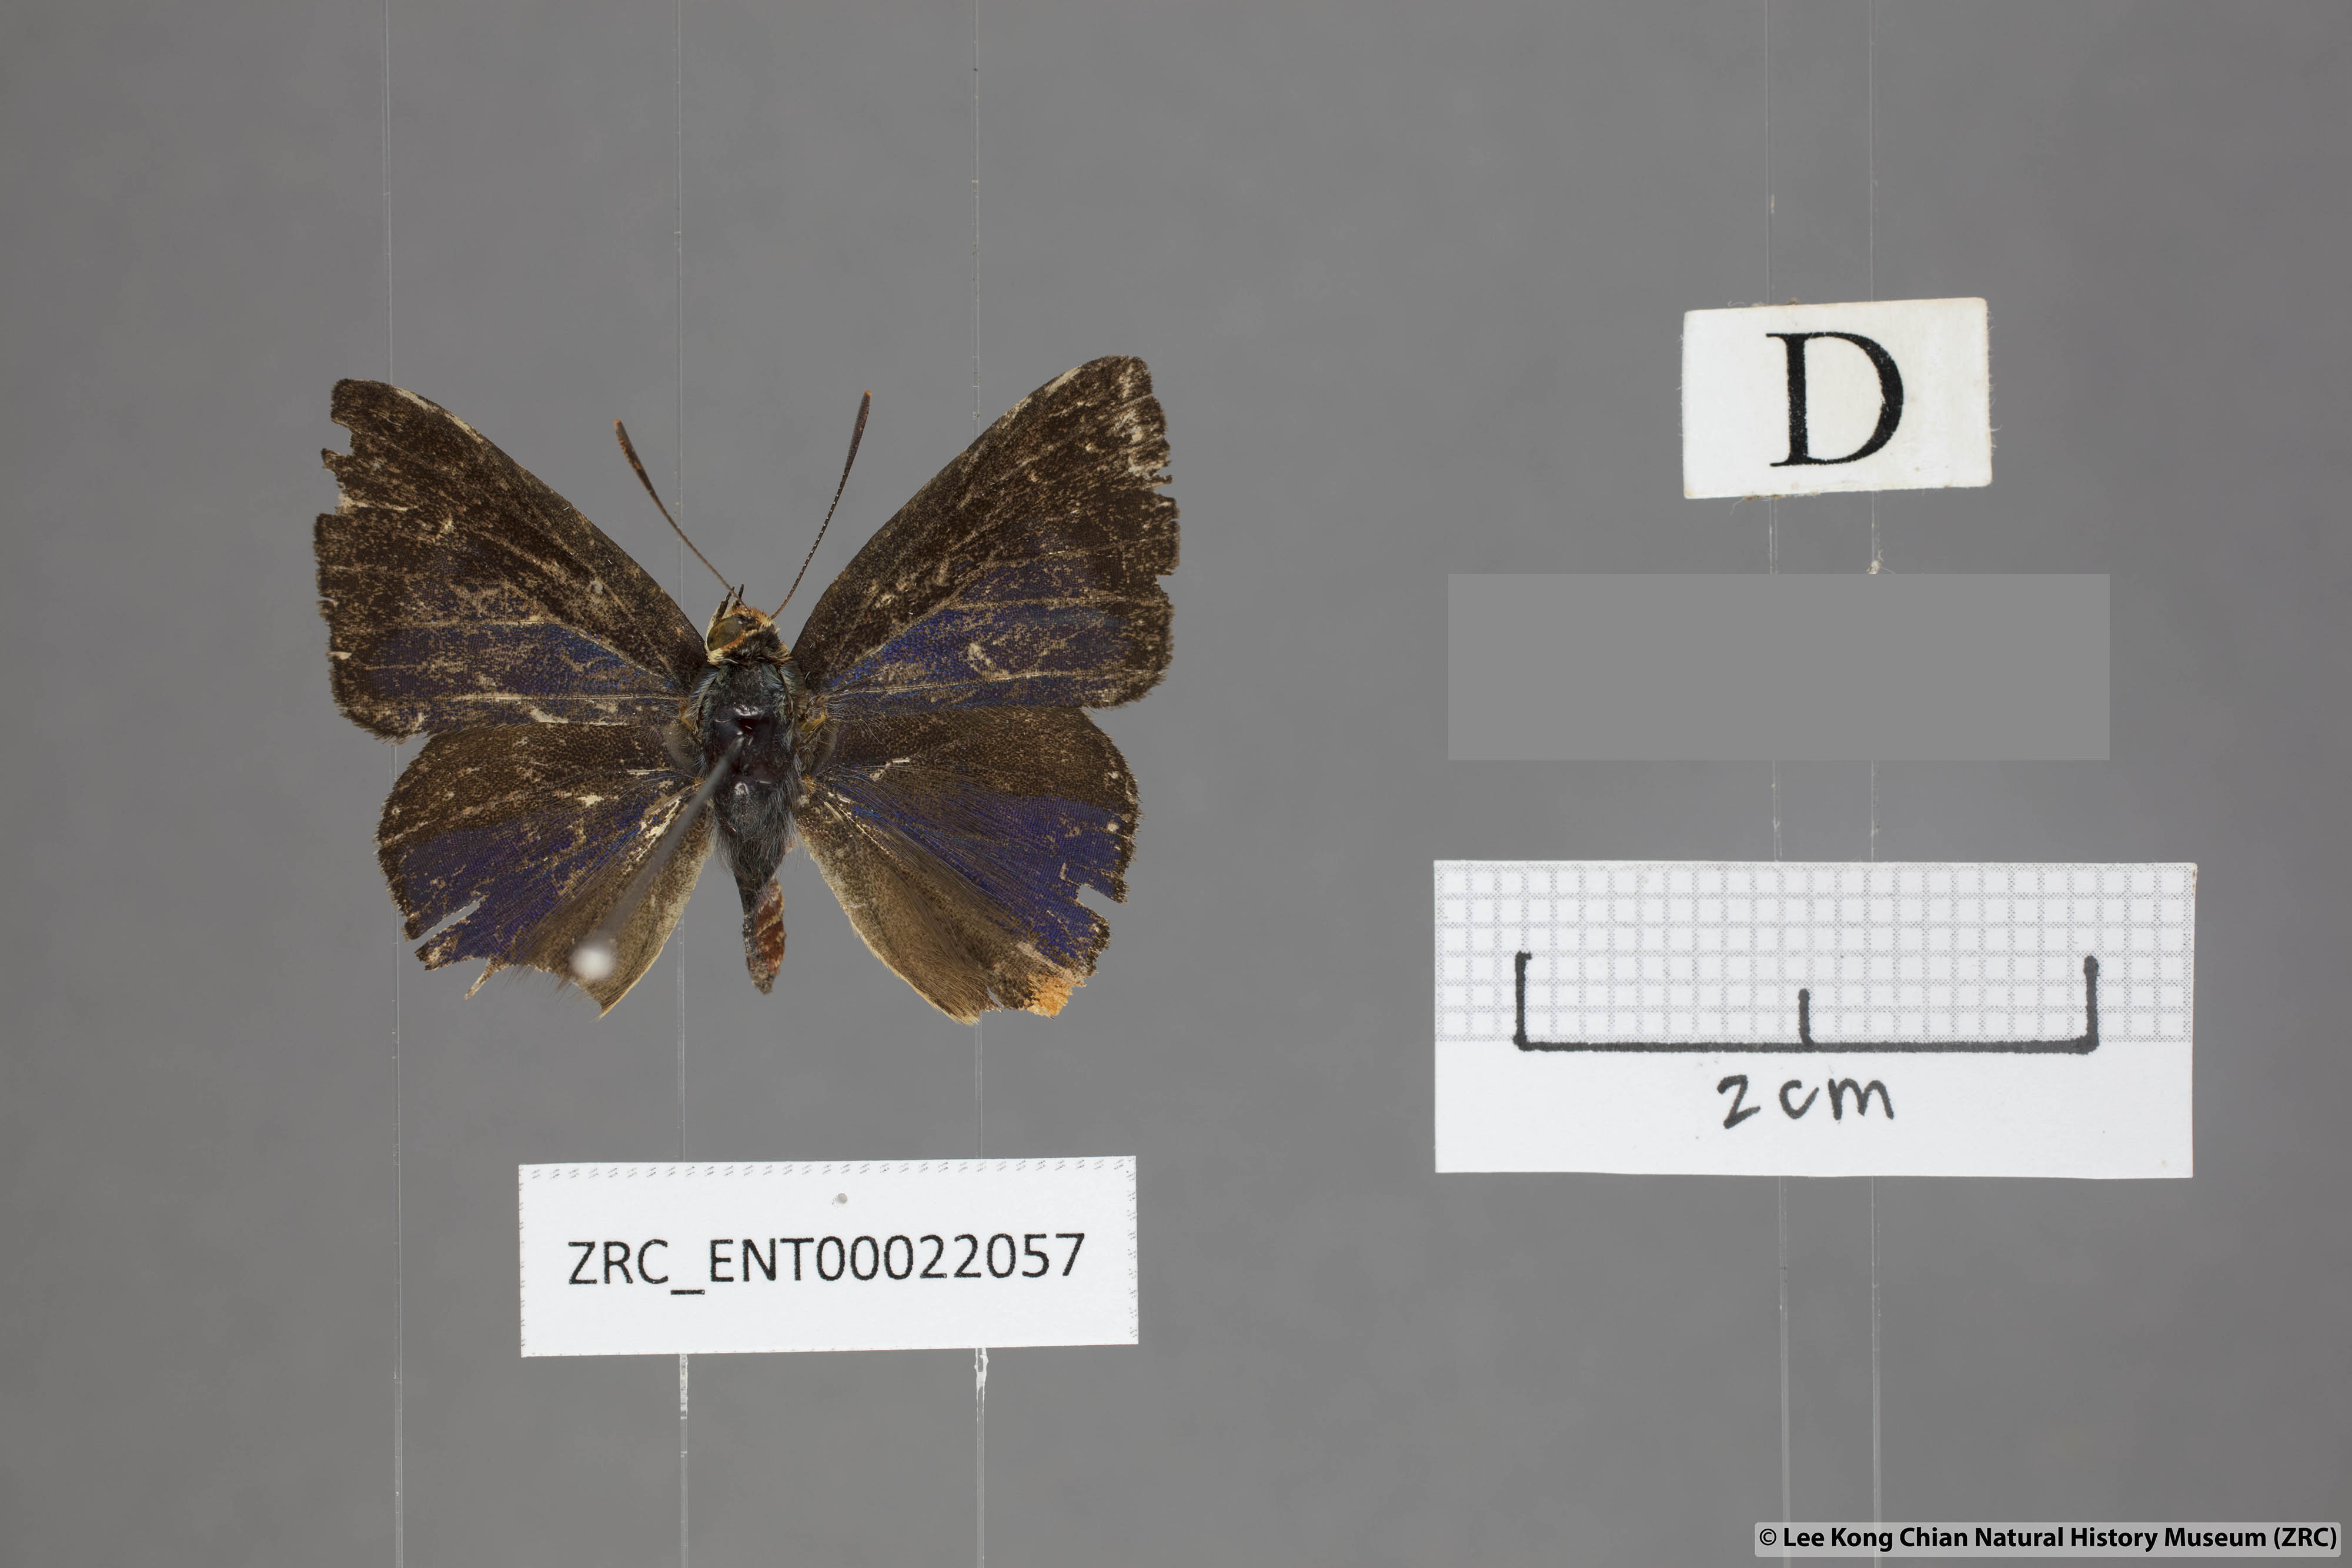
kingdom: Animalia
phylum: Arthropoda
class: Insecta
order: Lepidoptera
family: Lycaenidae
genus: Spindasis
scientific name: Spindasis kutu
